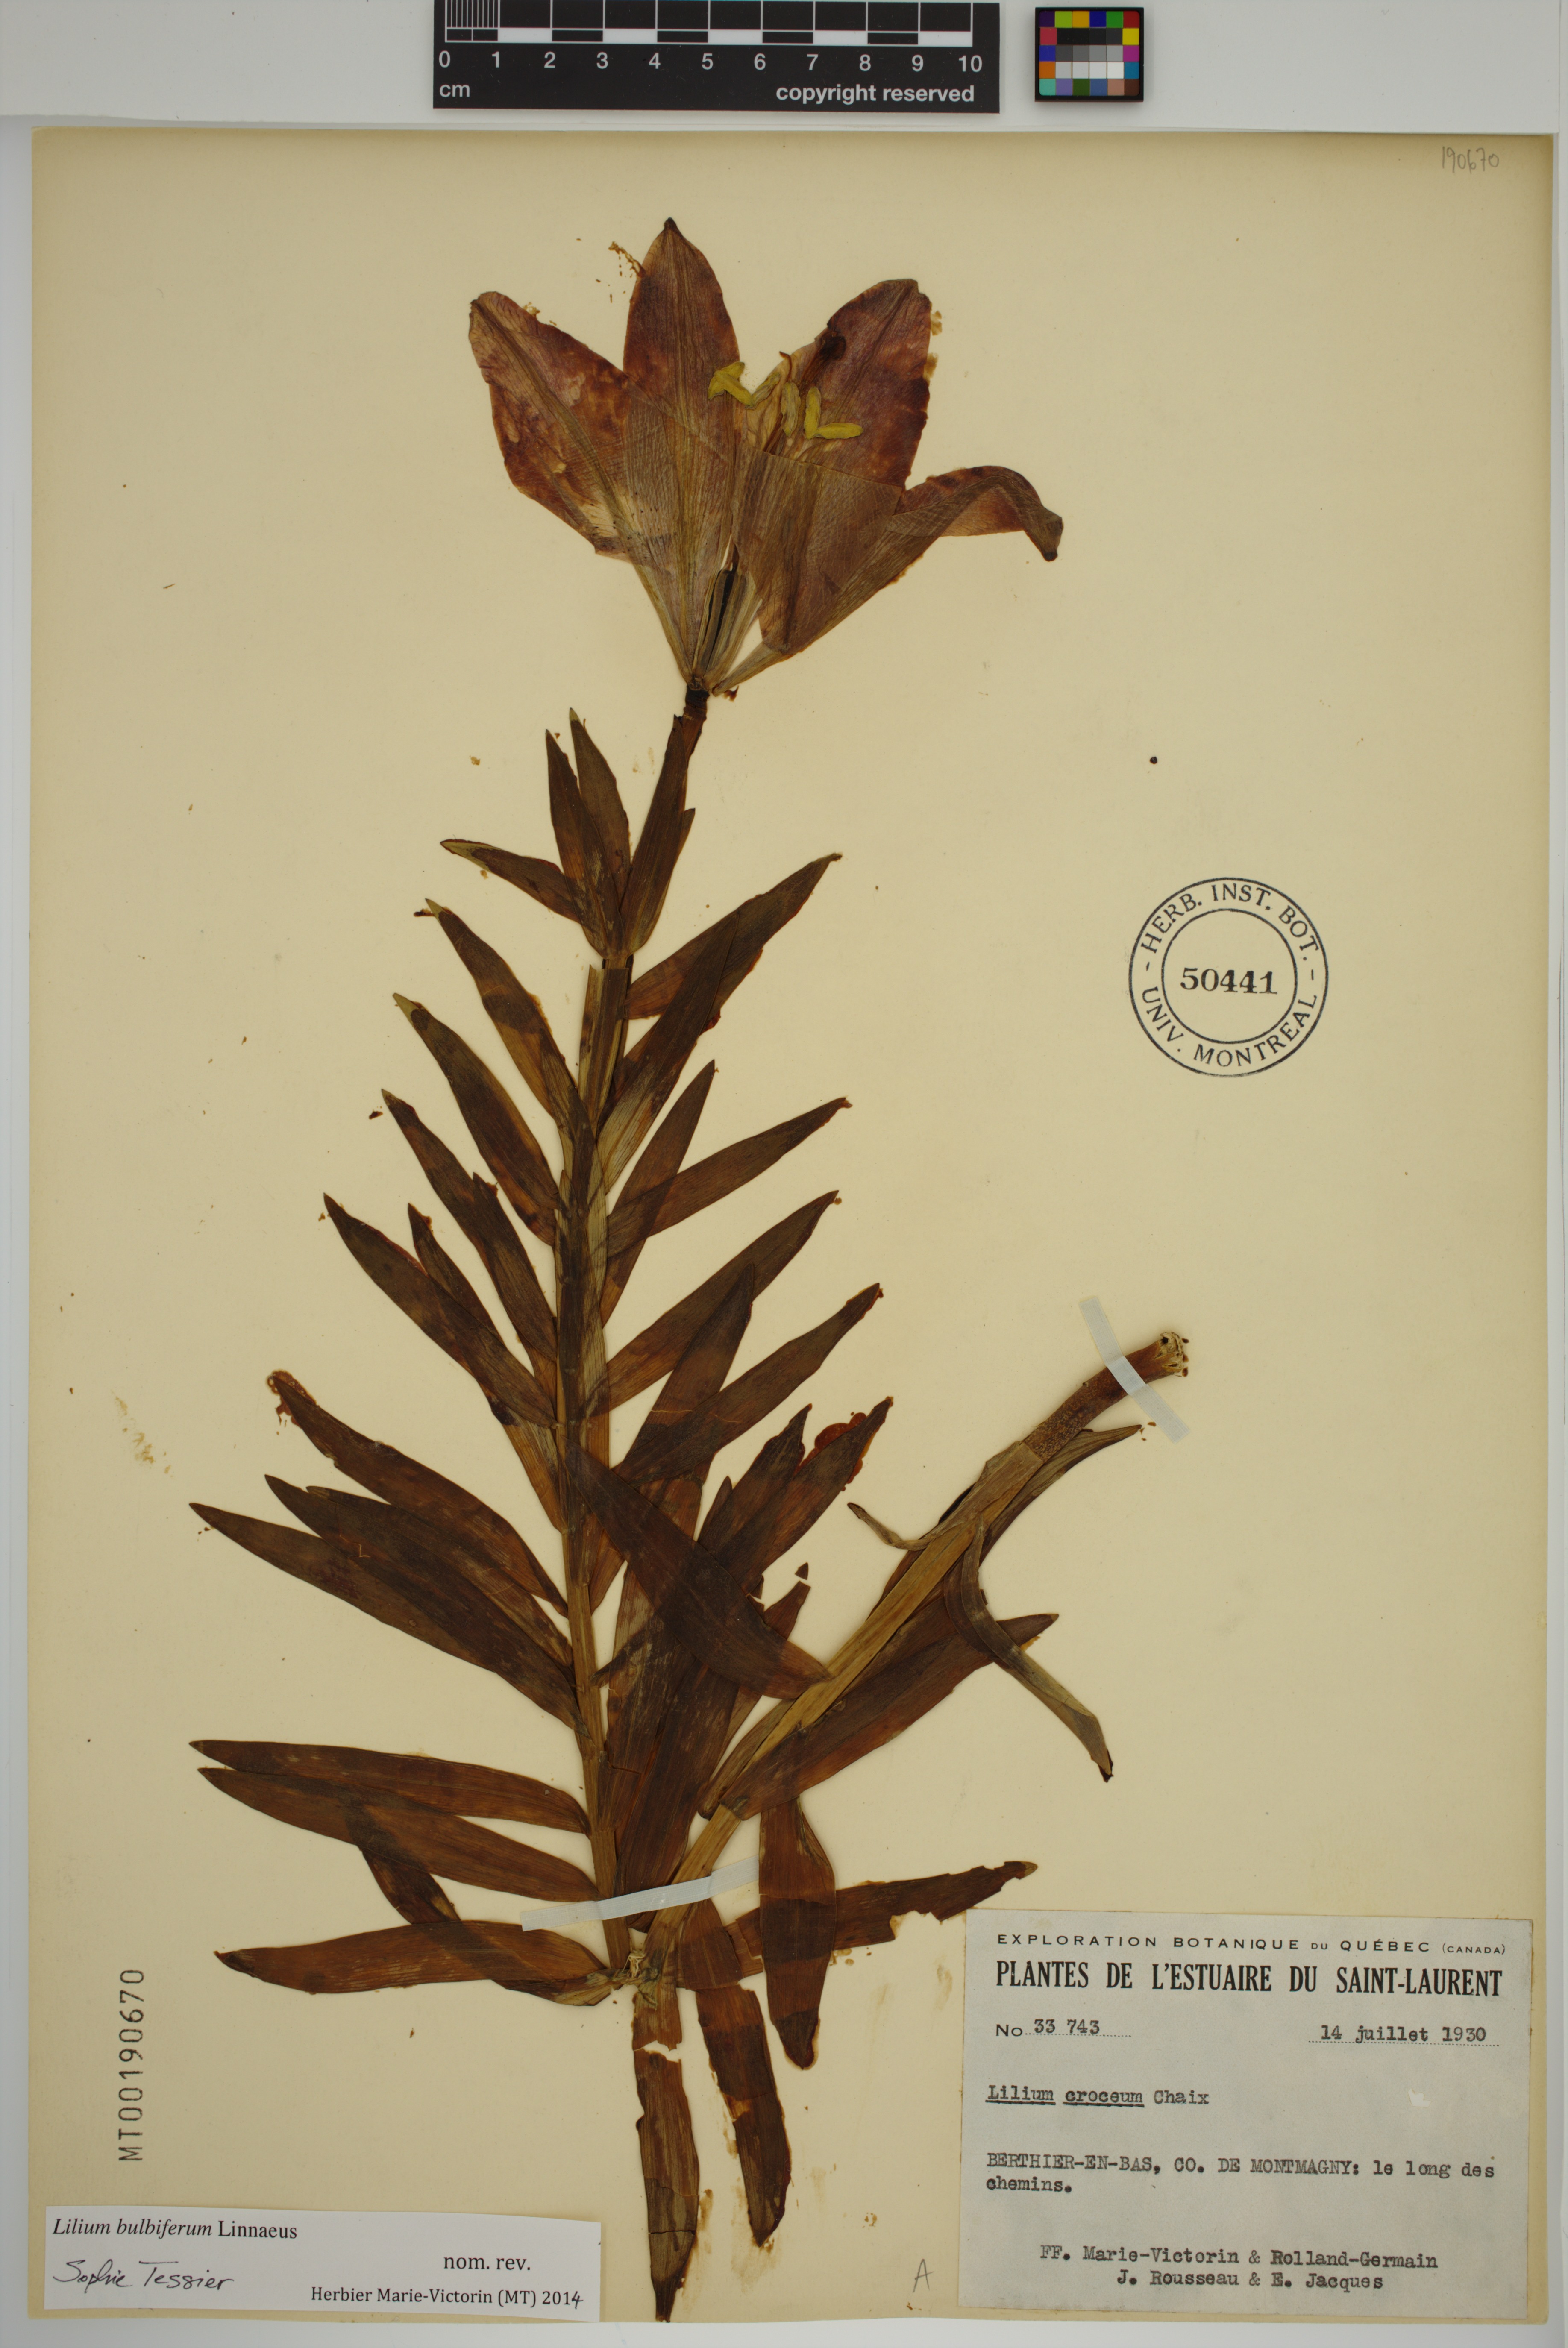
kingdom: Plantae
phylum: Tracheophyta
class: Liliopsida
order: Liliales
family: Liliaceae
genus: Lilium
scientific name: Lilium bulbiferum
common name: Orange lily
